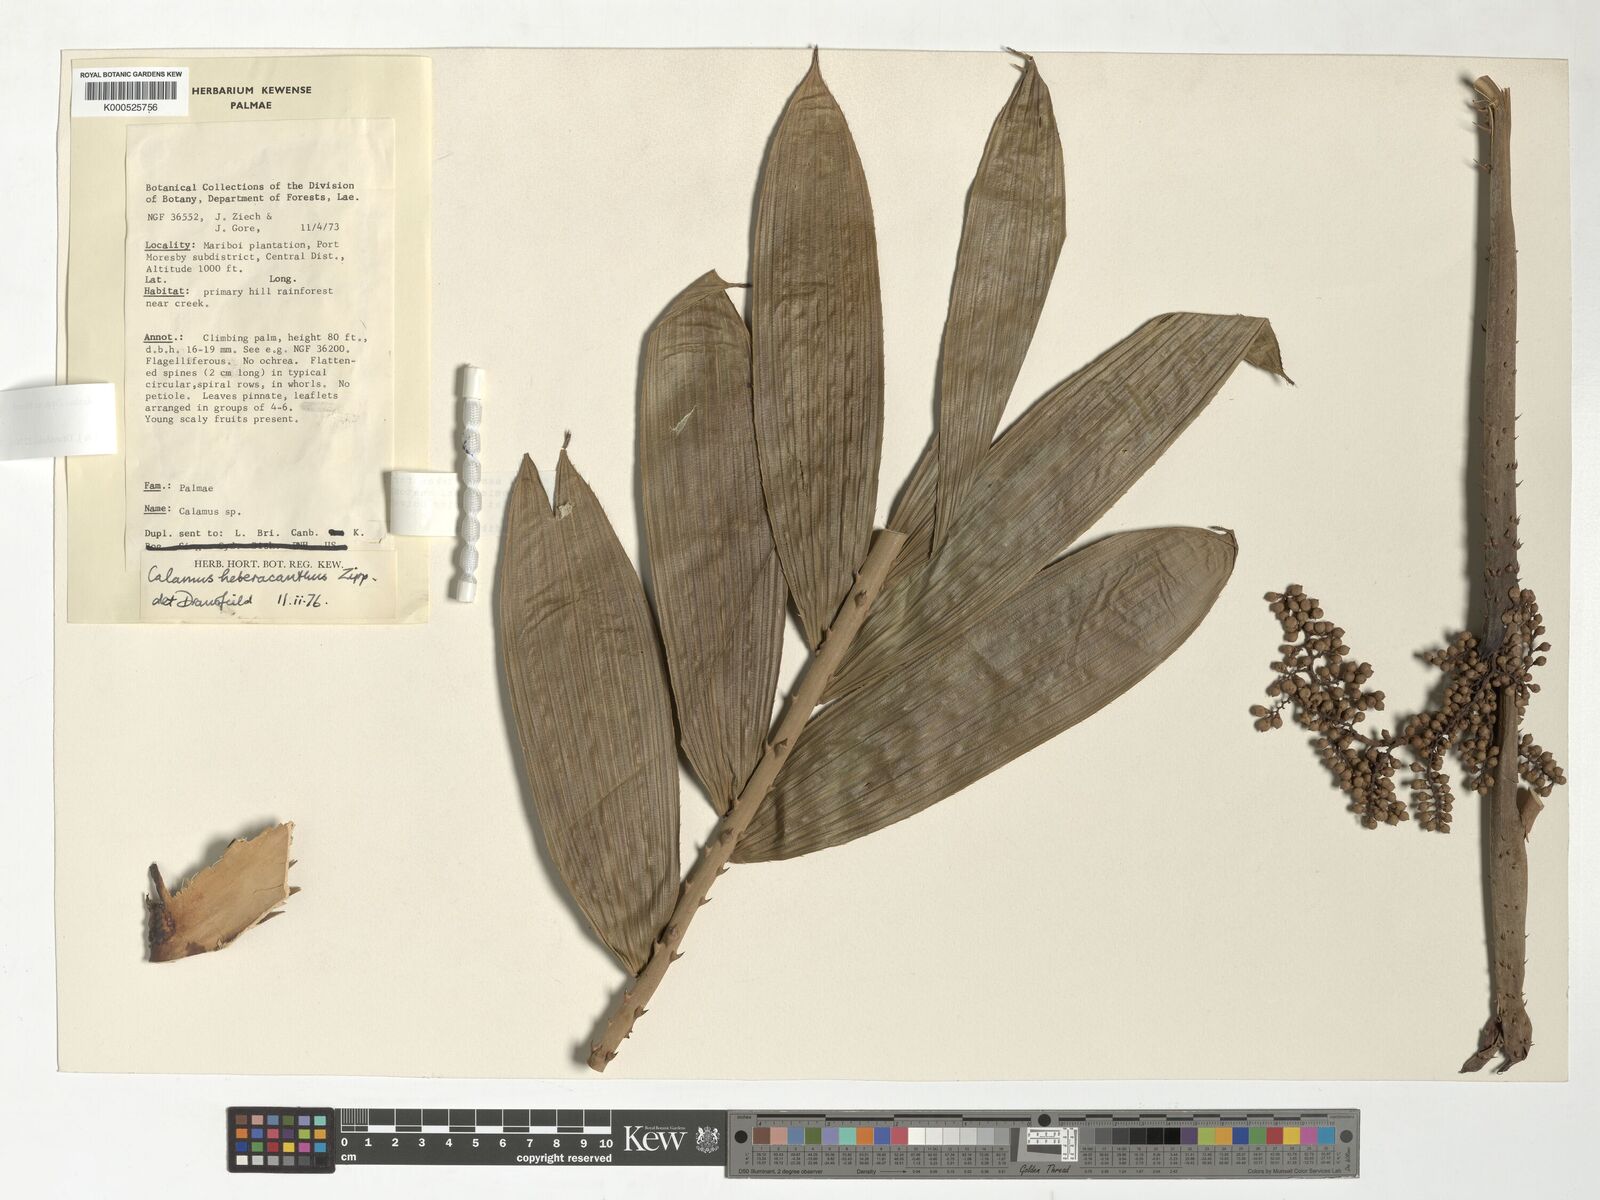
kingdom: Plantae
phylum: Tracheophyta
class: Liliopsida
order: Arecales
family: Arecaceae
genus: Calamus
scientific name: Calamus heteracanthus
